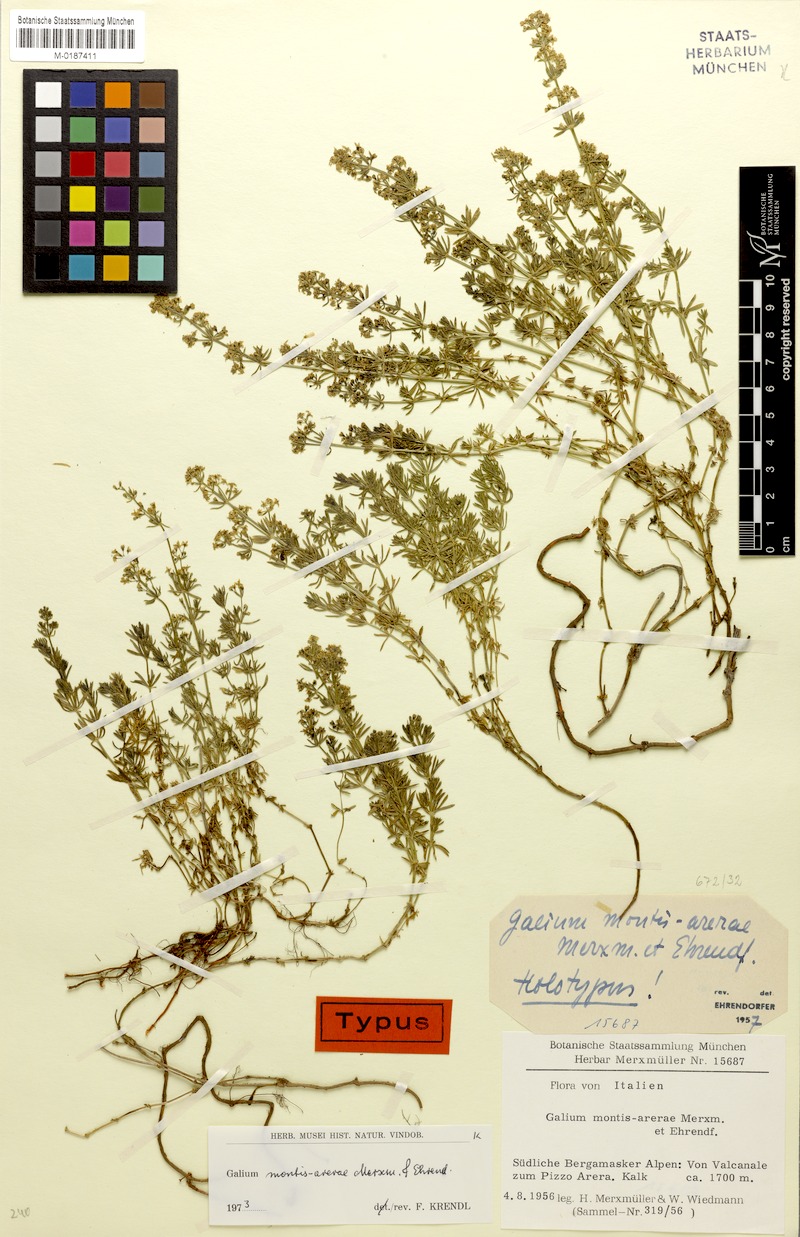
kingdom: Plantae
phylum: Tracheophyta
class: Magnoliopsida
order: Gentianales
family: Rubiaceae
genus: Galium
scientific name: Galium montis-arerae
